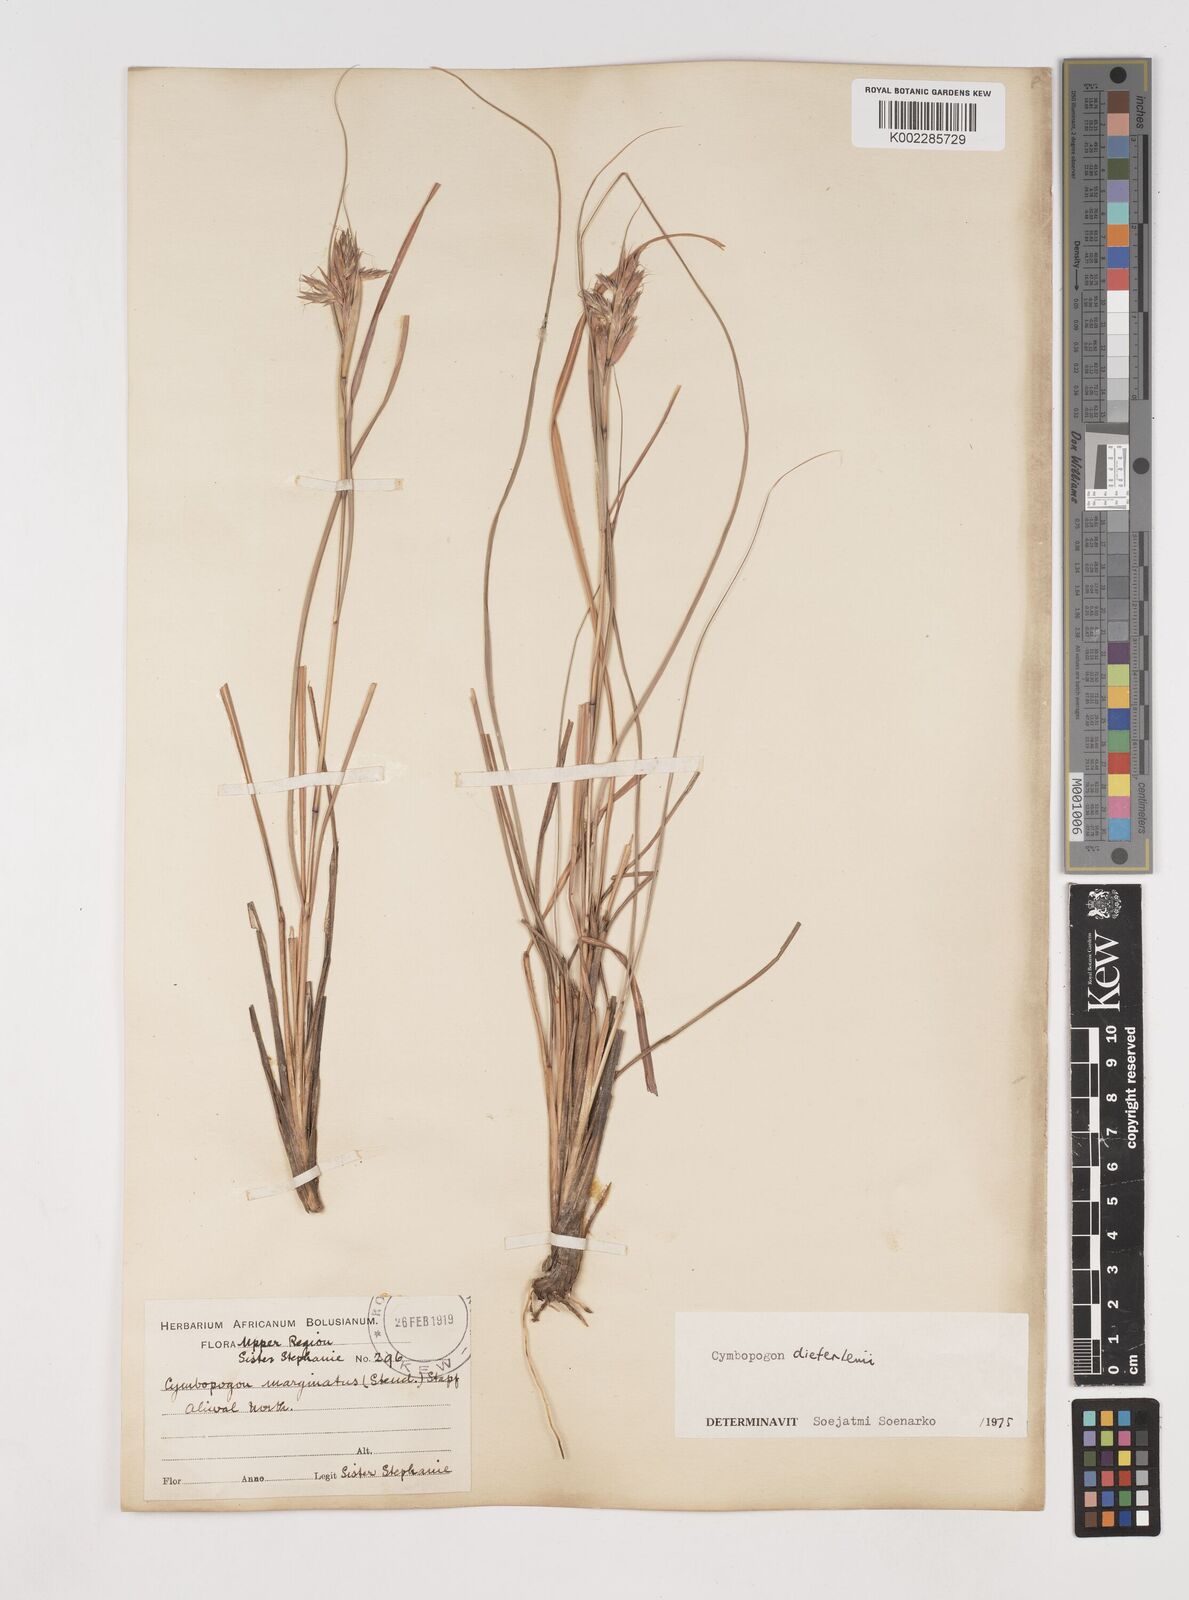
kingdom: Plantae
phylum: Tracheophyta
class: Liliopsida
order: Poales
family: Poaceae
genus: Cymbopogon
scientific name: Cymbopogon dieterlenii
